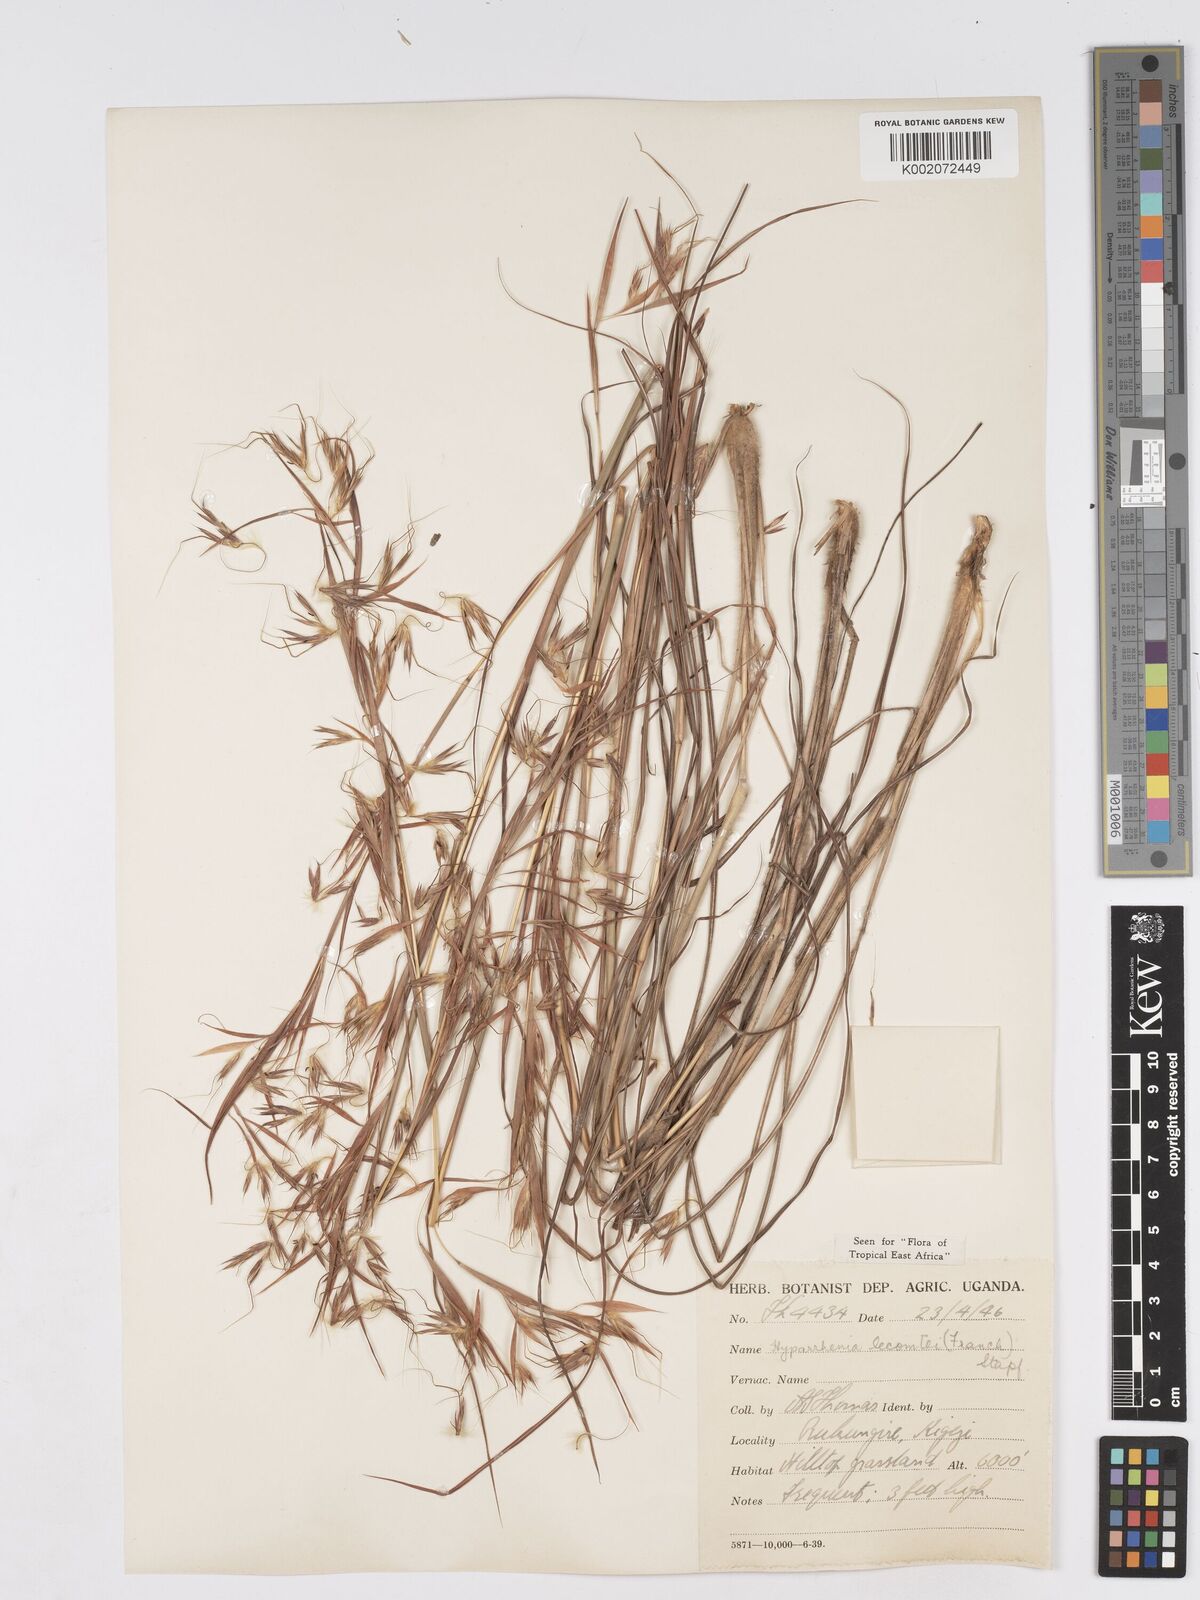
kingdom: Plantae
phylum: Tracheophyta
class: Liliopsida
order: Poales
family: Poaceae
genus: Hyparrhenia
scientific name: Hyparrhenia newtonii
